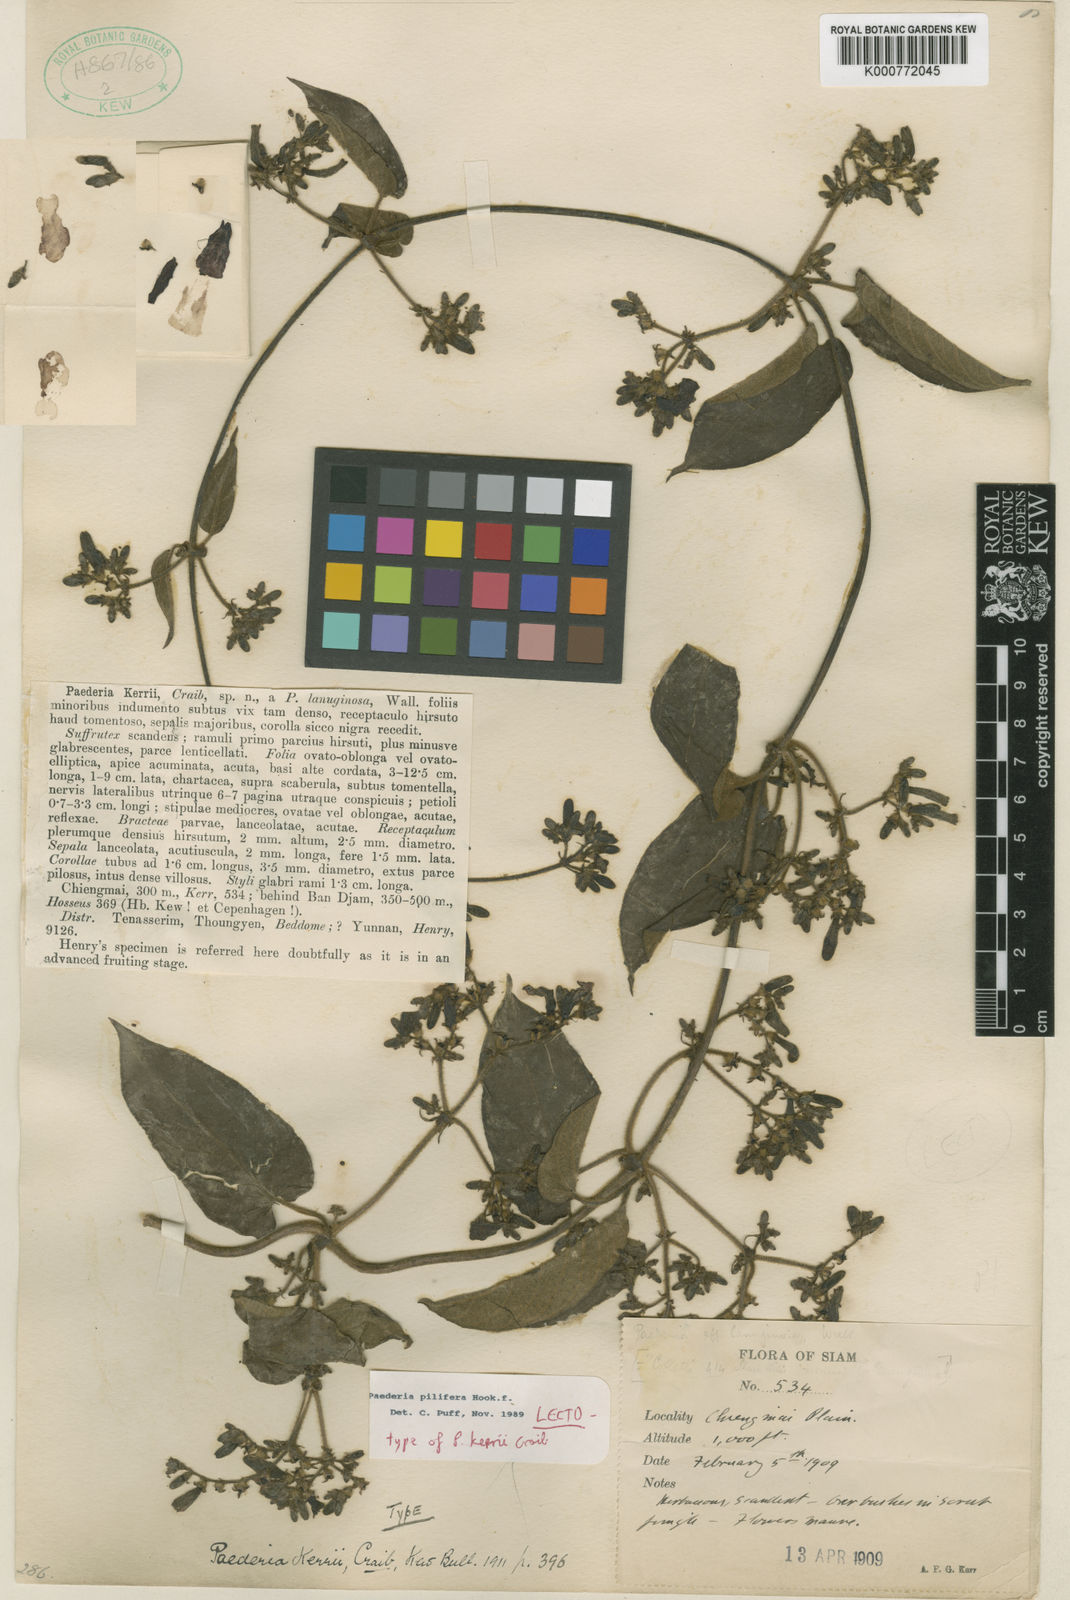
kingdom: Plantae
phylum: Tracheophyta
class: Magnoliopsida
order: Gentianales
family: Rubiaceae
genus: Paederia
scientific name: Paederia pilifera
